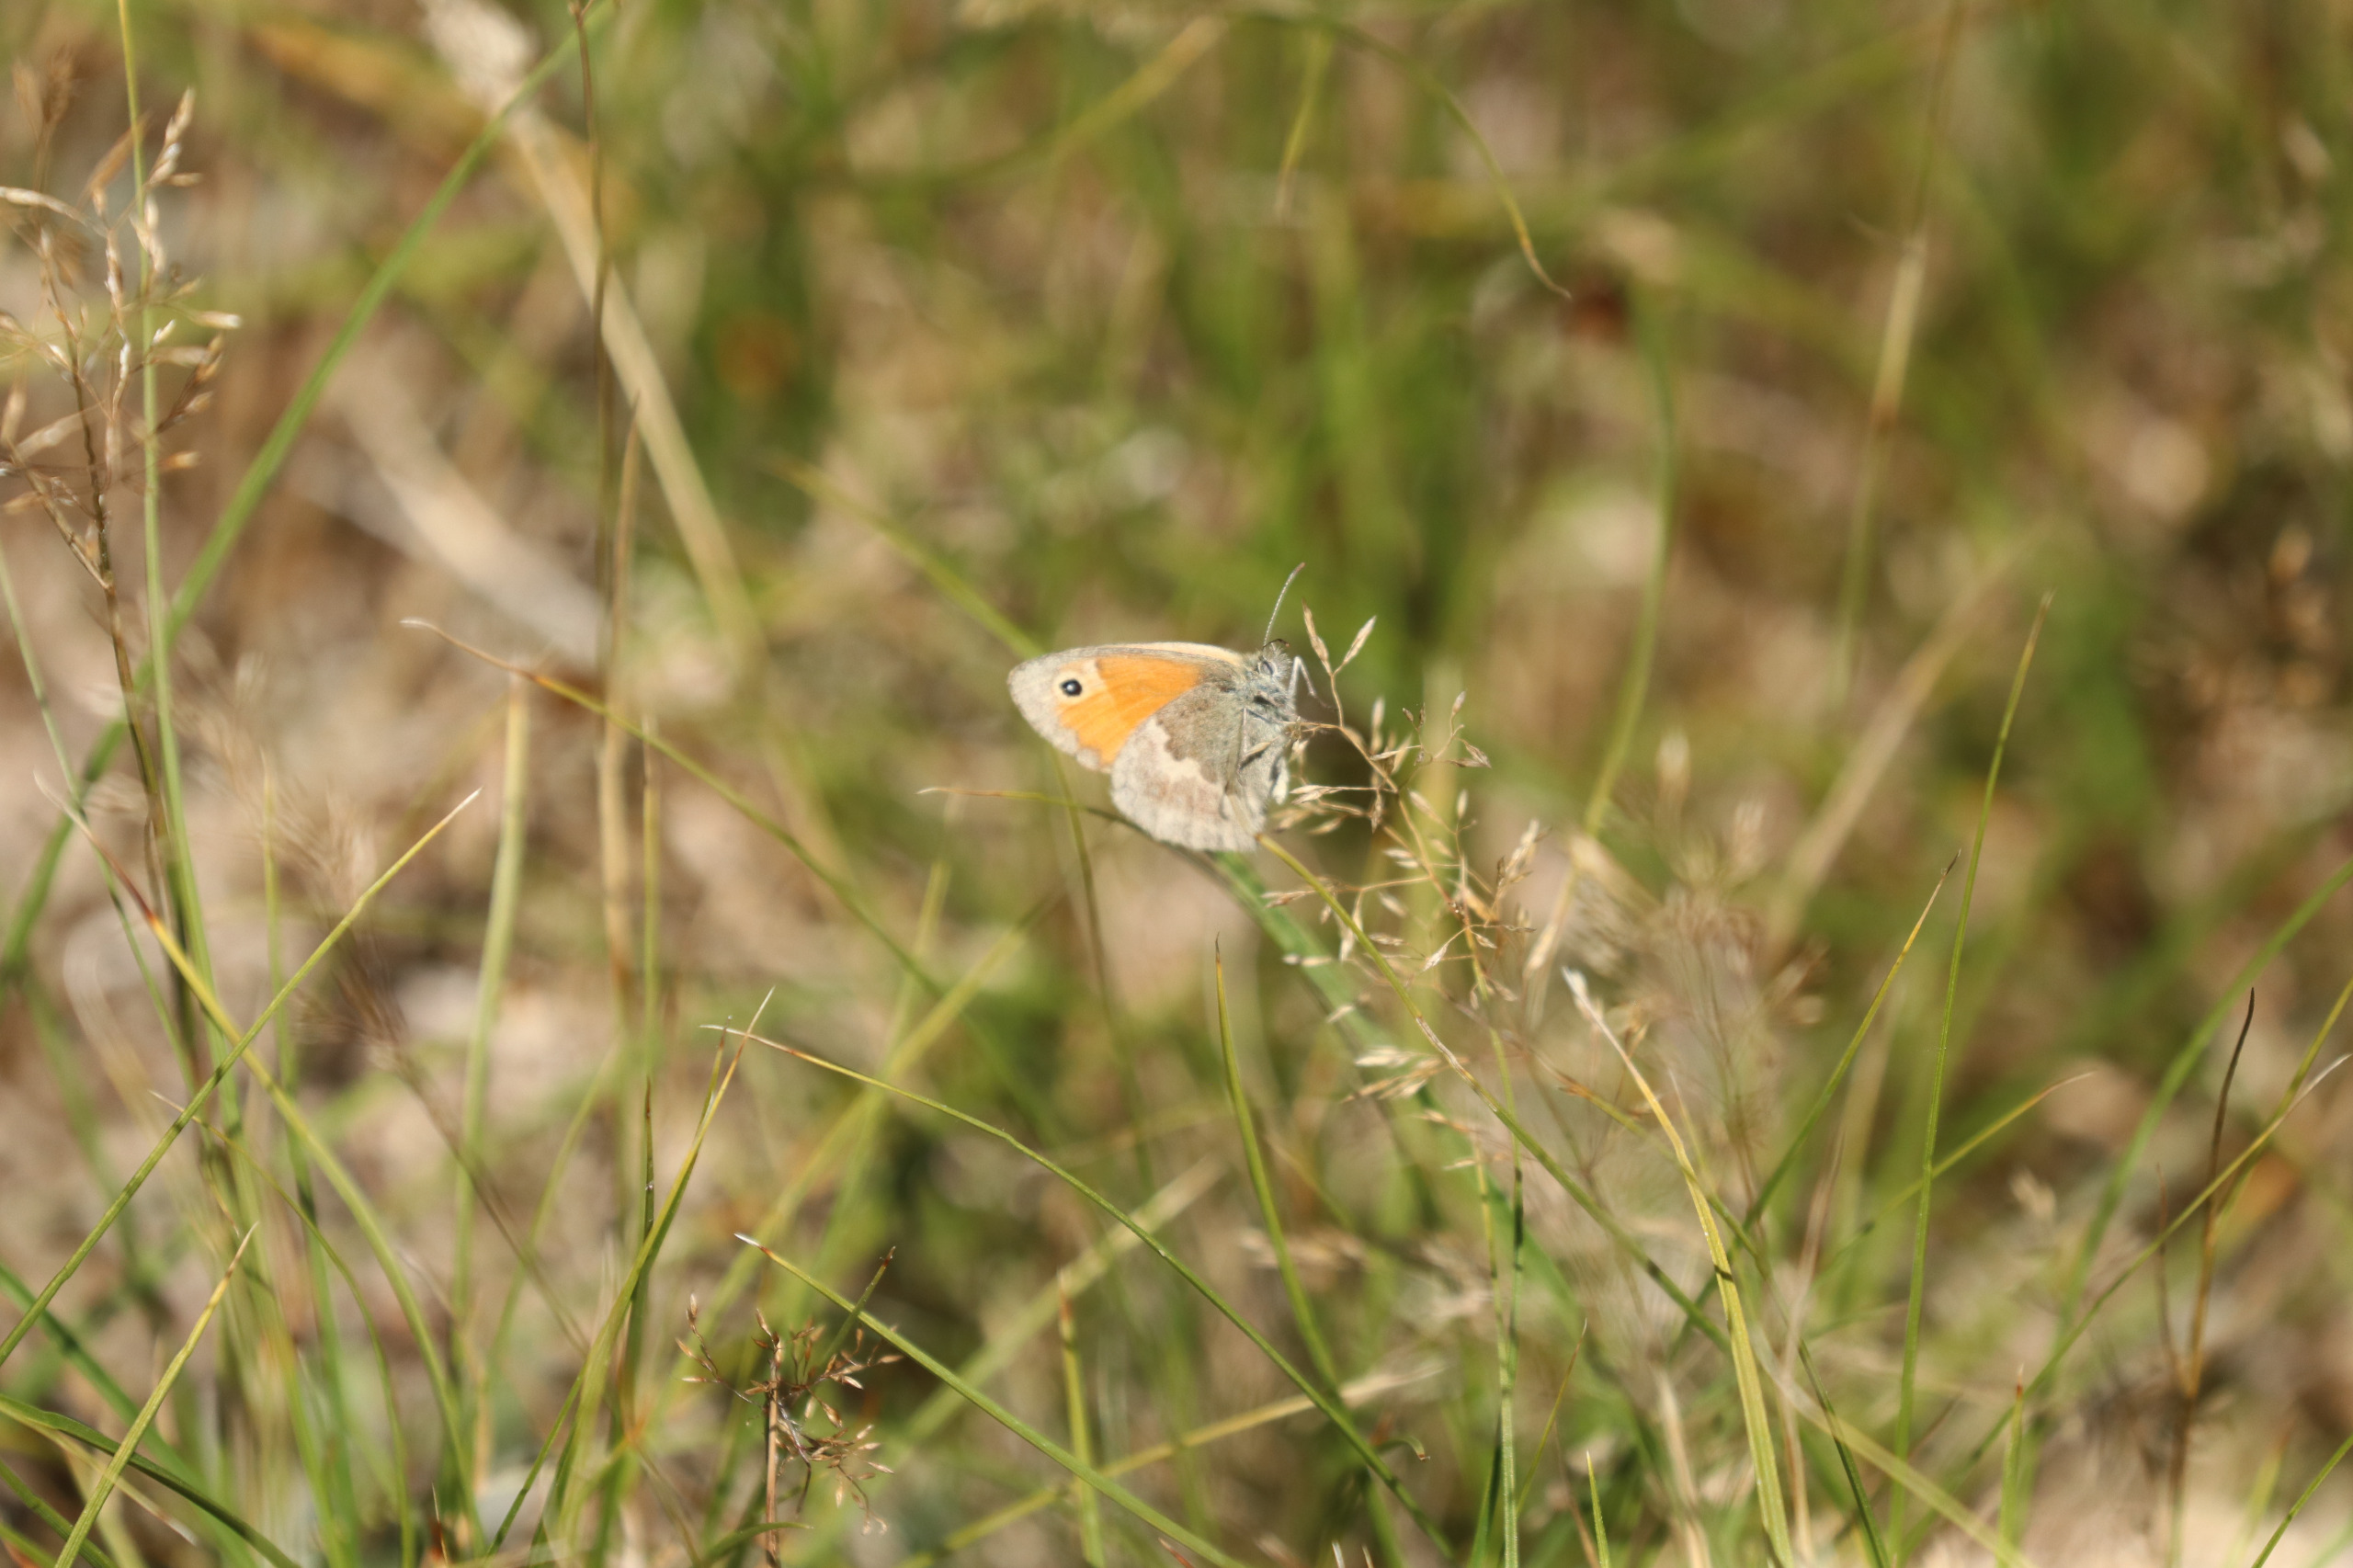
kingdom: Animalia
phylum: Arthropoda
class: Insecta
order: Lepidoptera
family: Nymphalidae
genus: Coenonympha
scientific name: Coenonympha pamphilus
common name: Okkergul randøje
